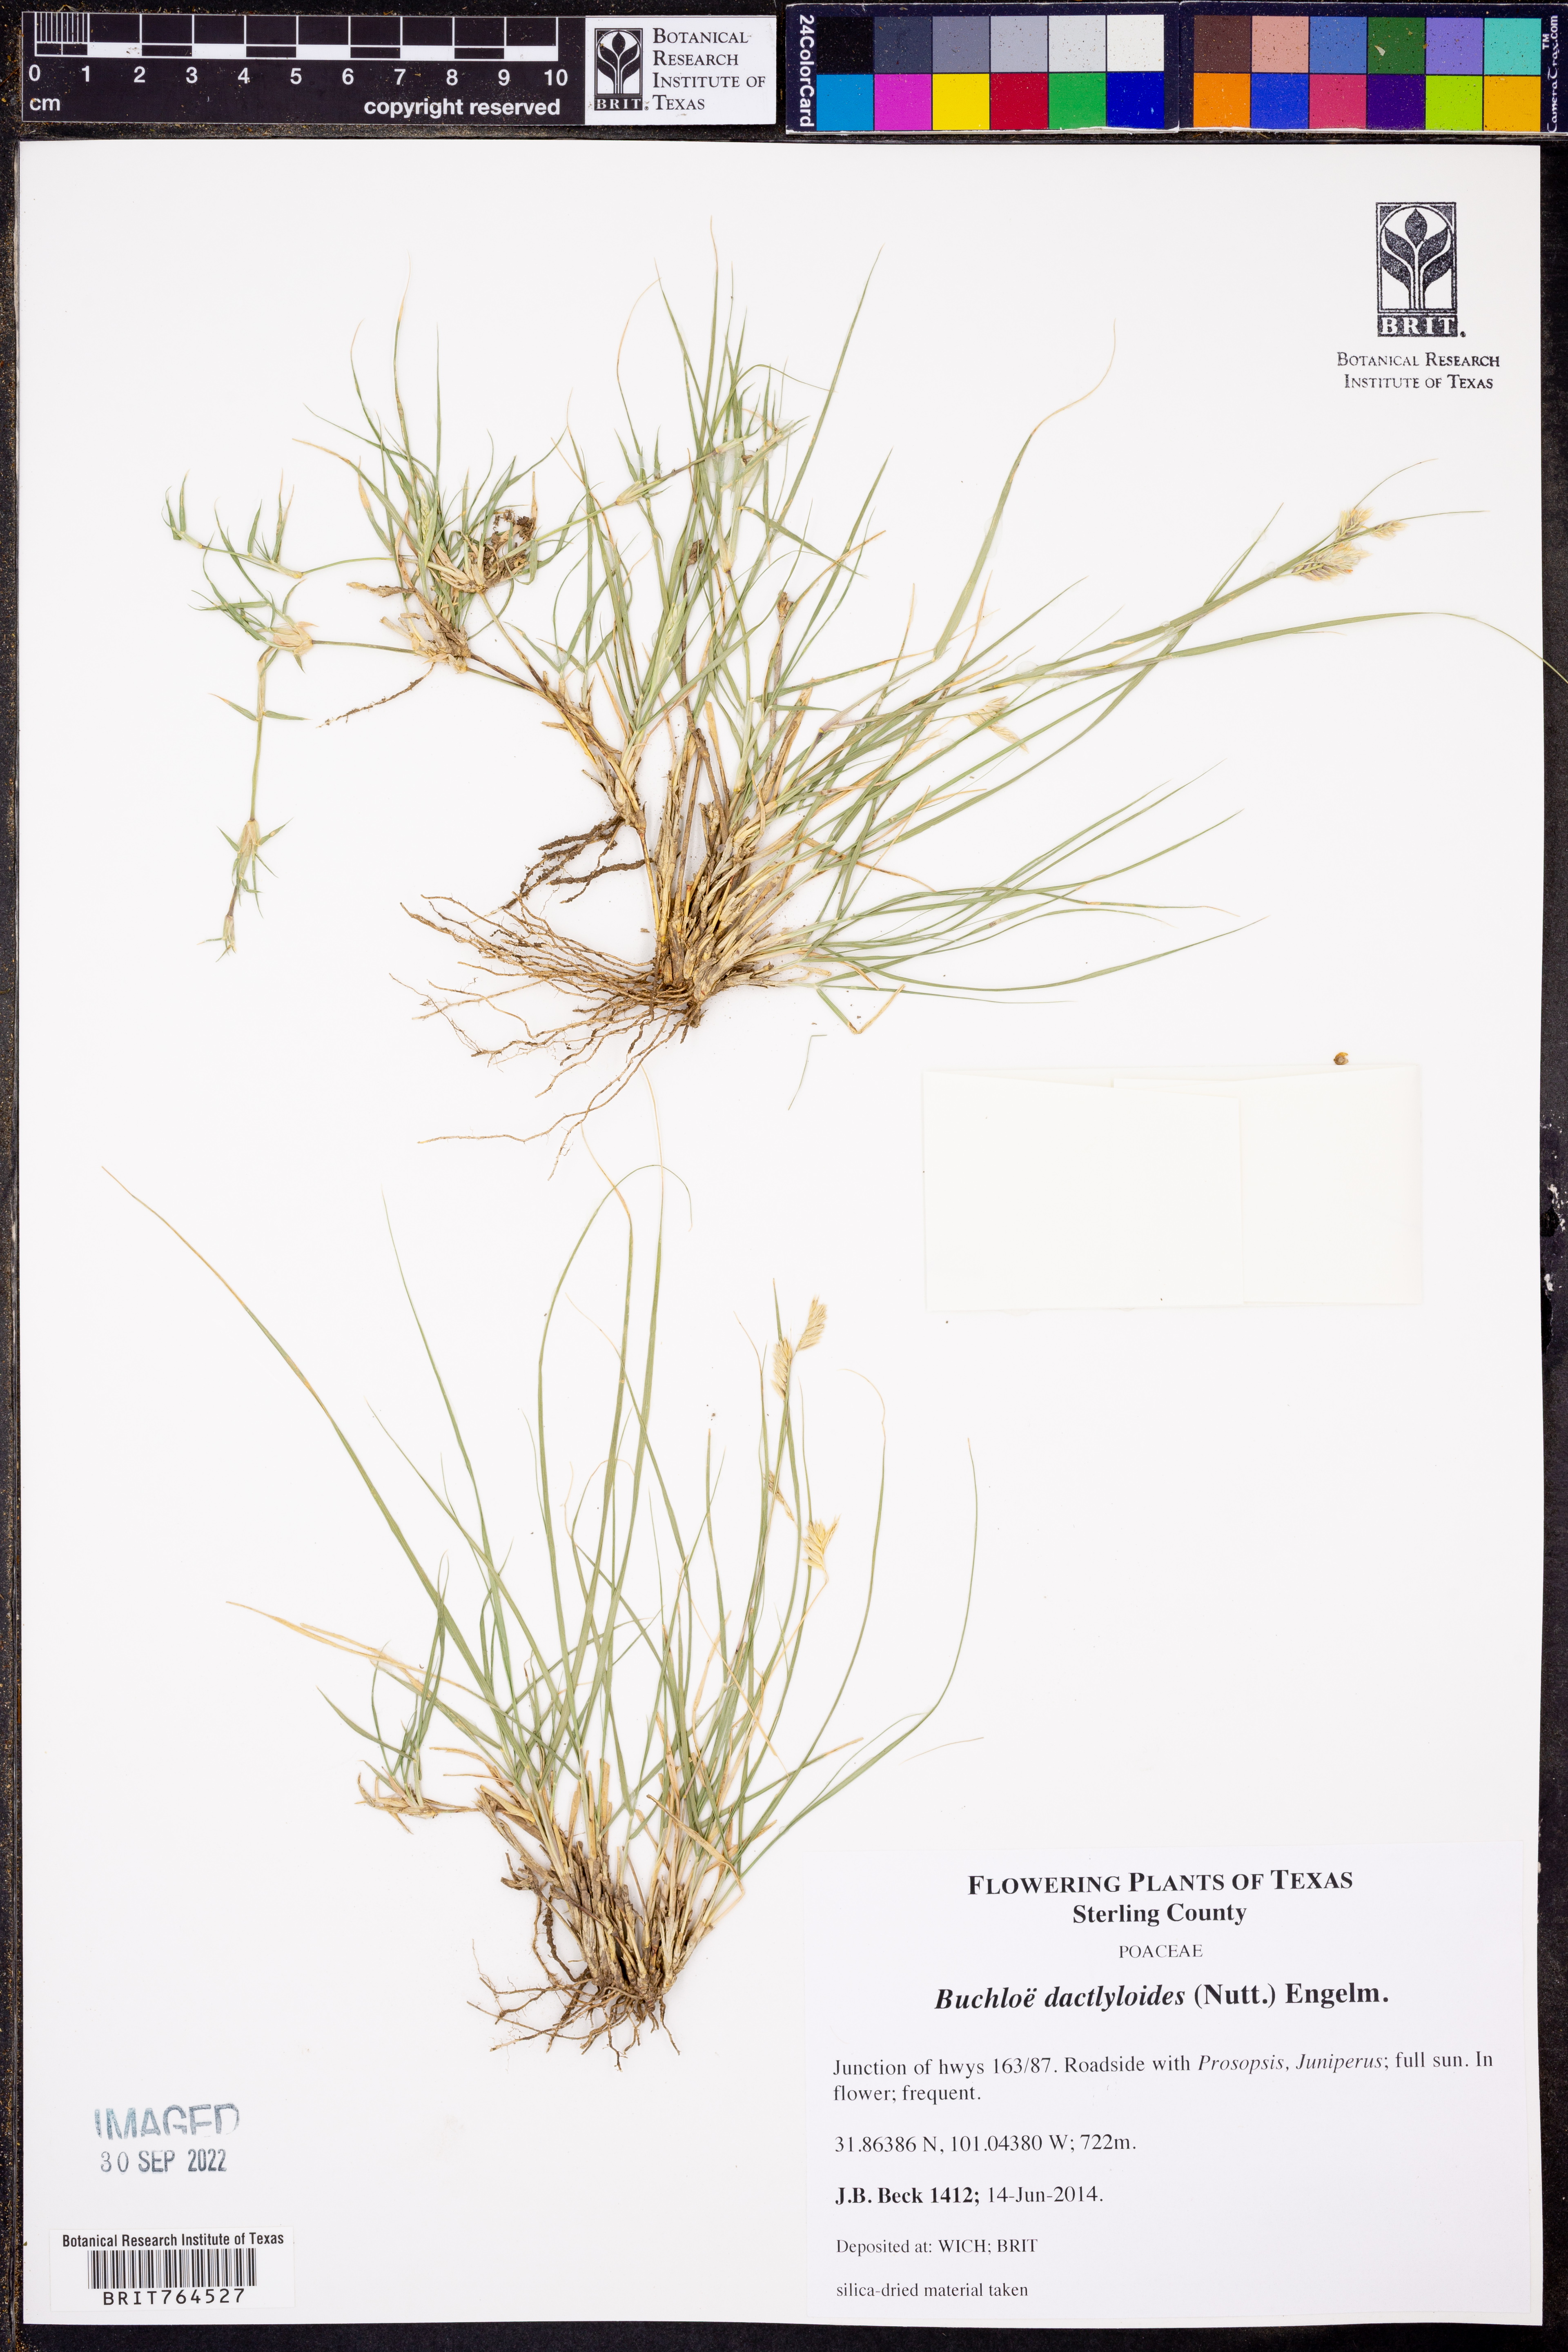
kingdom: Plantae
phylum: Tracheophyta
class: Liliopsida
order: Poales
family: Poaceae
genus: Bouteloua
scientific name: Bouteloua dactyloides
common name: Buffalo grass
